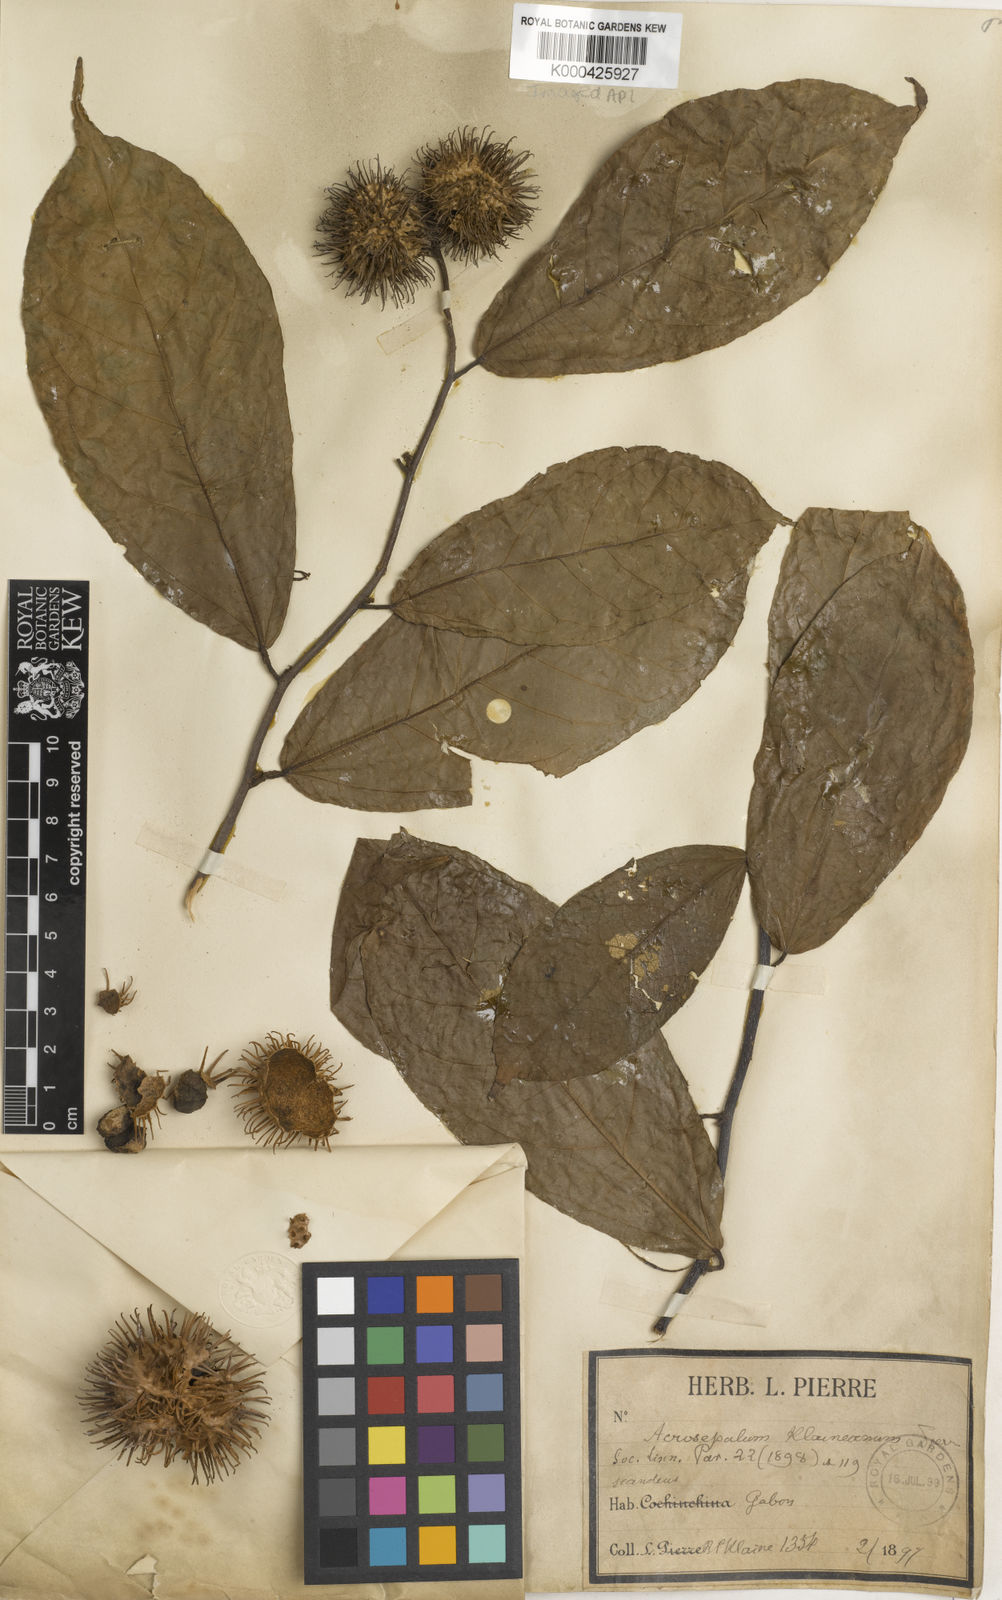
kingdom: Plantae
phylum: Tracheophyta
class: Magnoliopsida
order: Malvales
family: Malvaceae
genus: Ancistrocarpus
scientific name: Ancistrocarpus densispinosus
